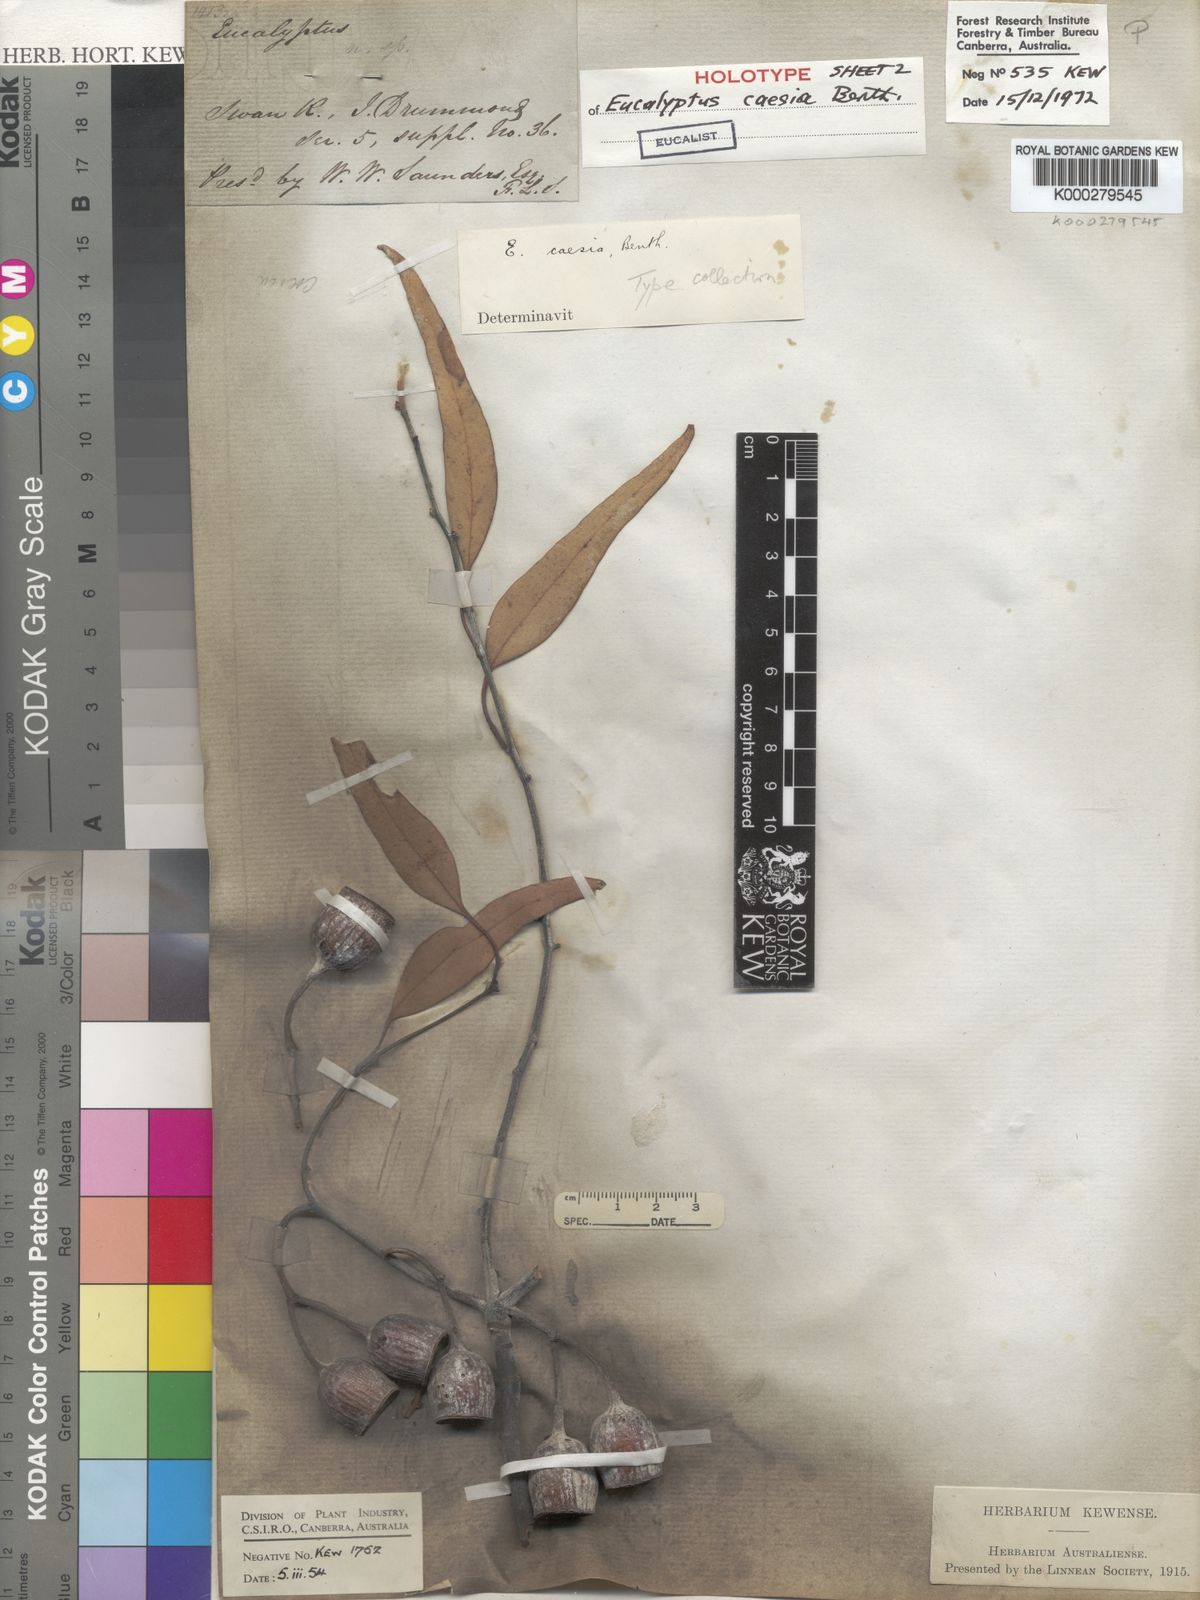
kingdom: Plantae
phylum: Tracheophyta
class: Magnoliopsida
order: Myrtales
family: Myrtaceae
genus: Eucalyptus
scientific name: Eucalyptus caesia
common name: Silver princess
